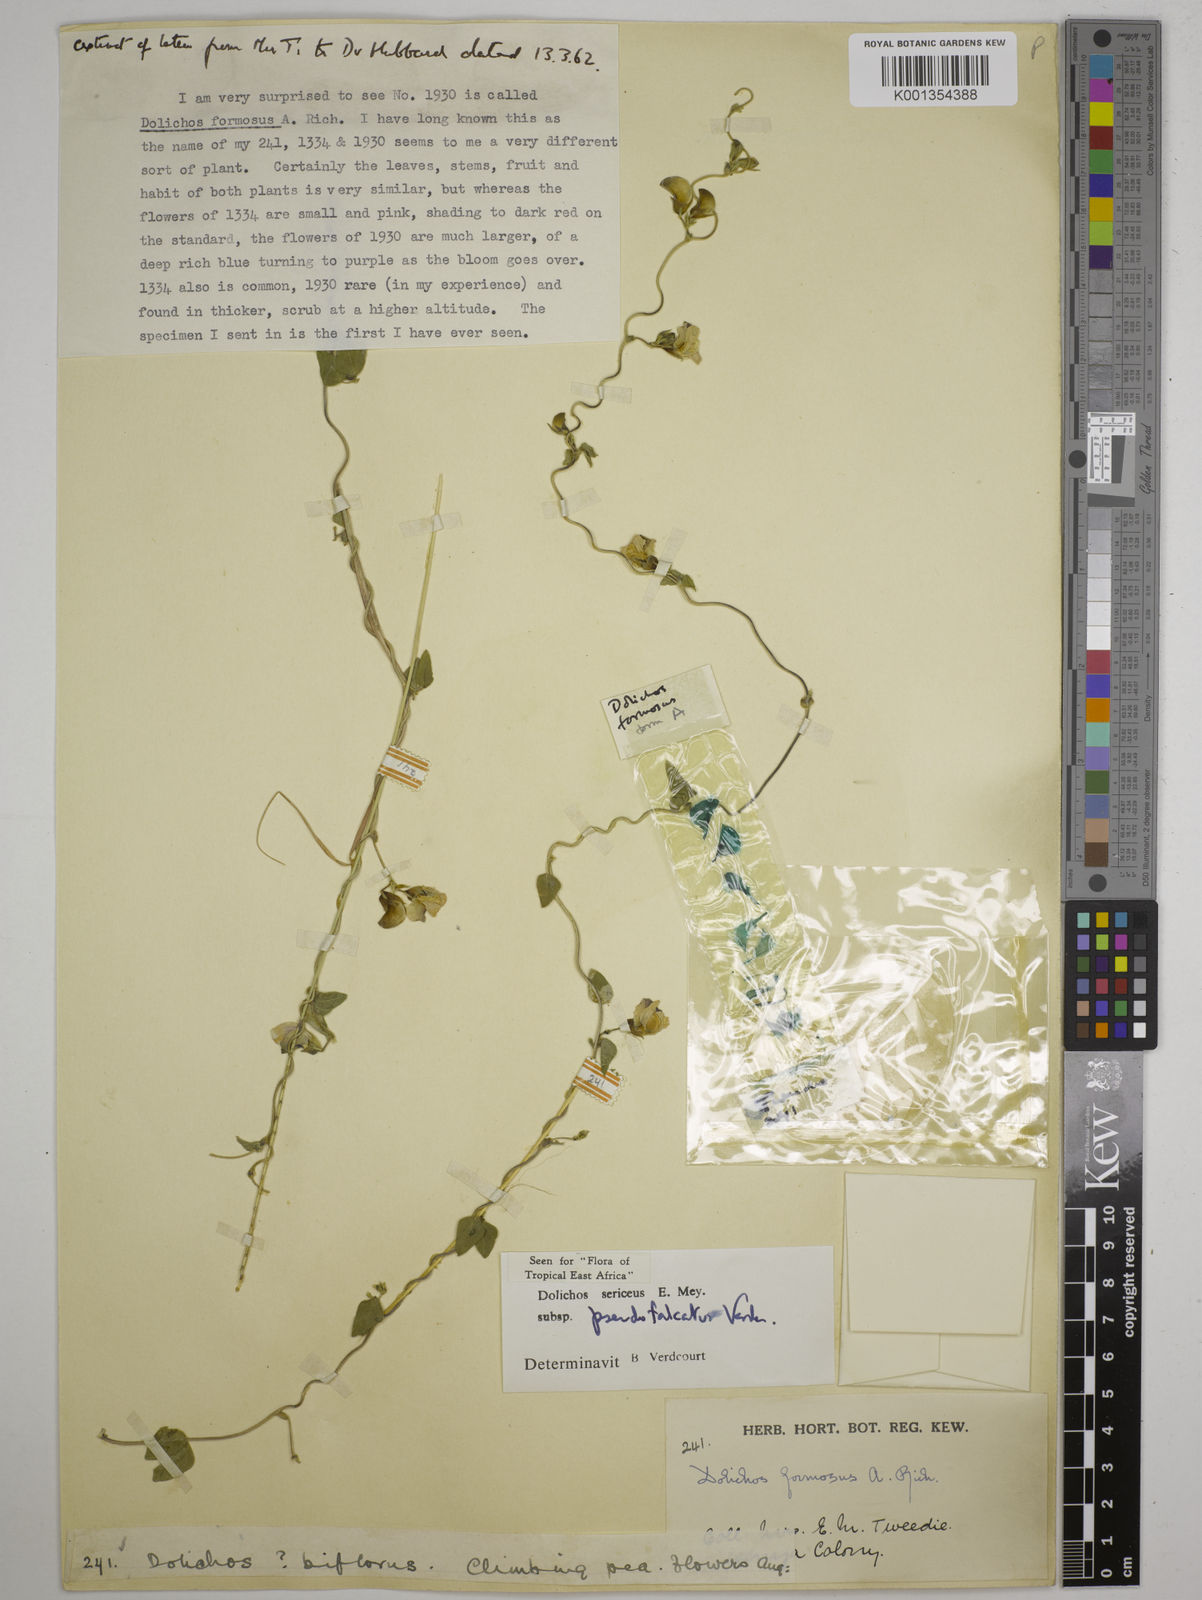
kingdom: Plantae
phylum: Tracheophyta
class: Magnoliopsida
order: Fabales
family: Fabaceae
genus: Dolichos
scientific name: Dolichos
